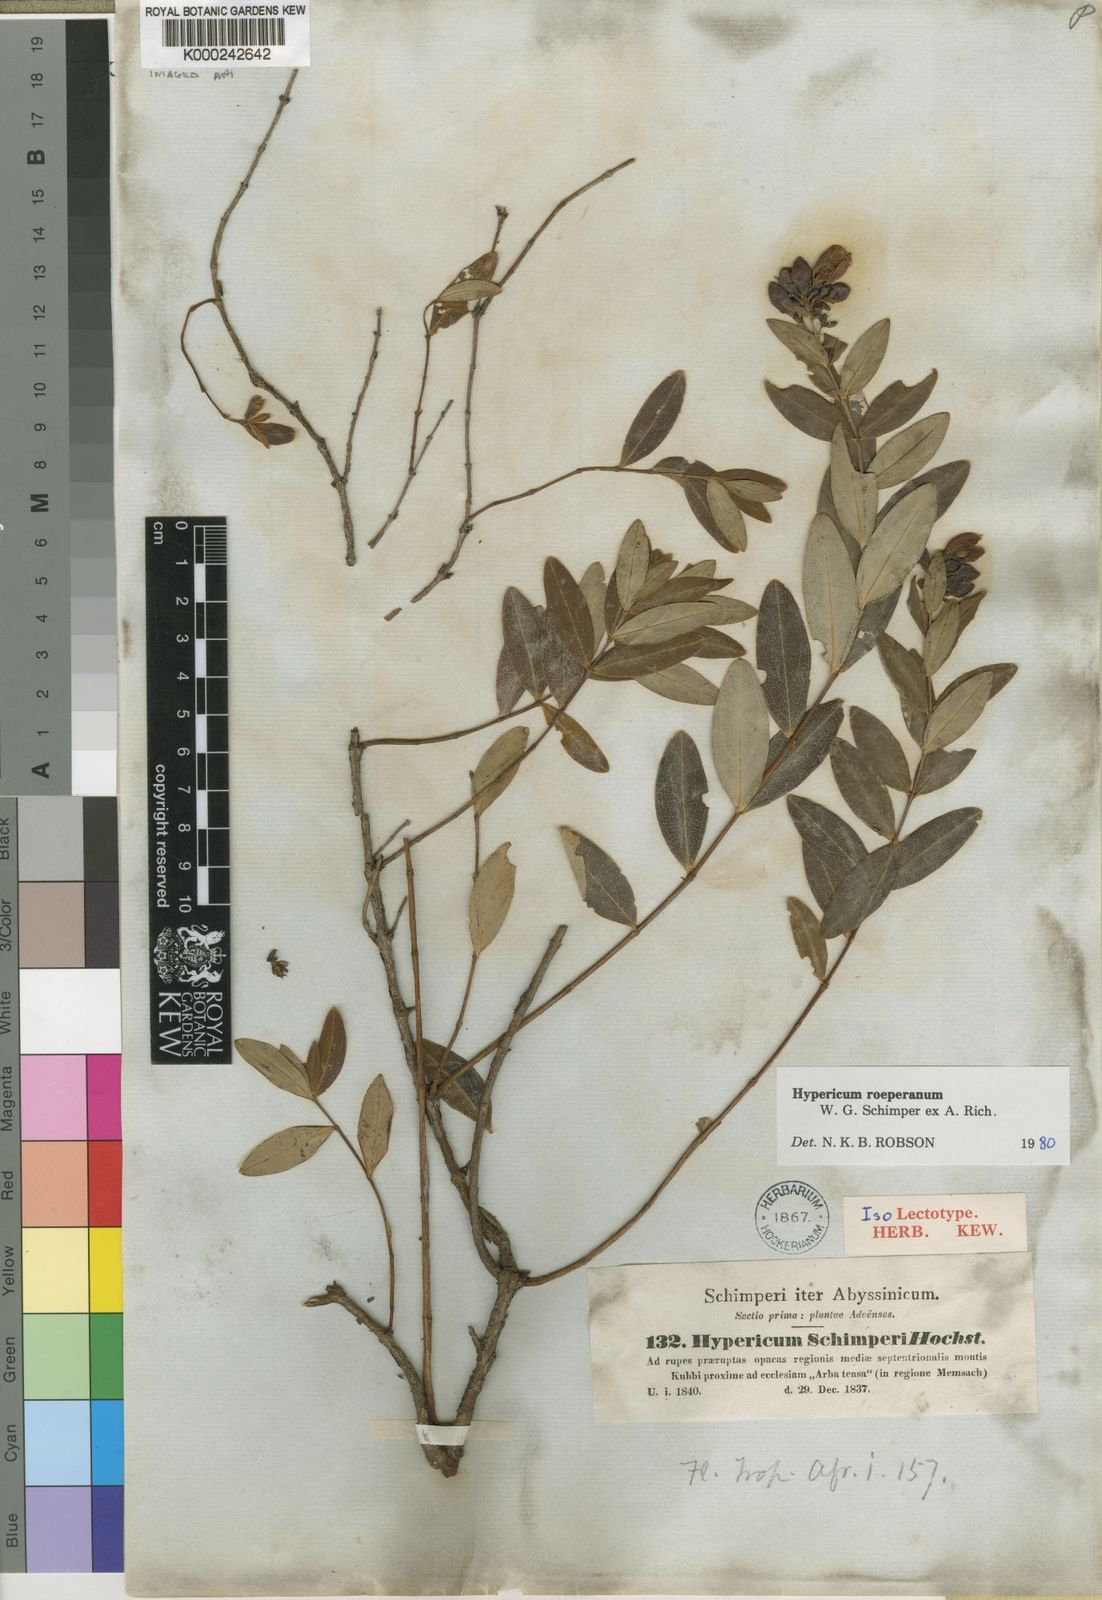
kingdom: Plantae
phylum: Tracheophyta
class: Magnoliopsida
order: Malpighiales
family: Hypericaceae
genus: Hypericum
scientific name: Hypericum
